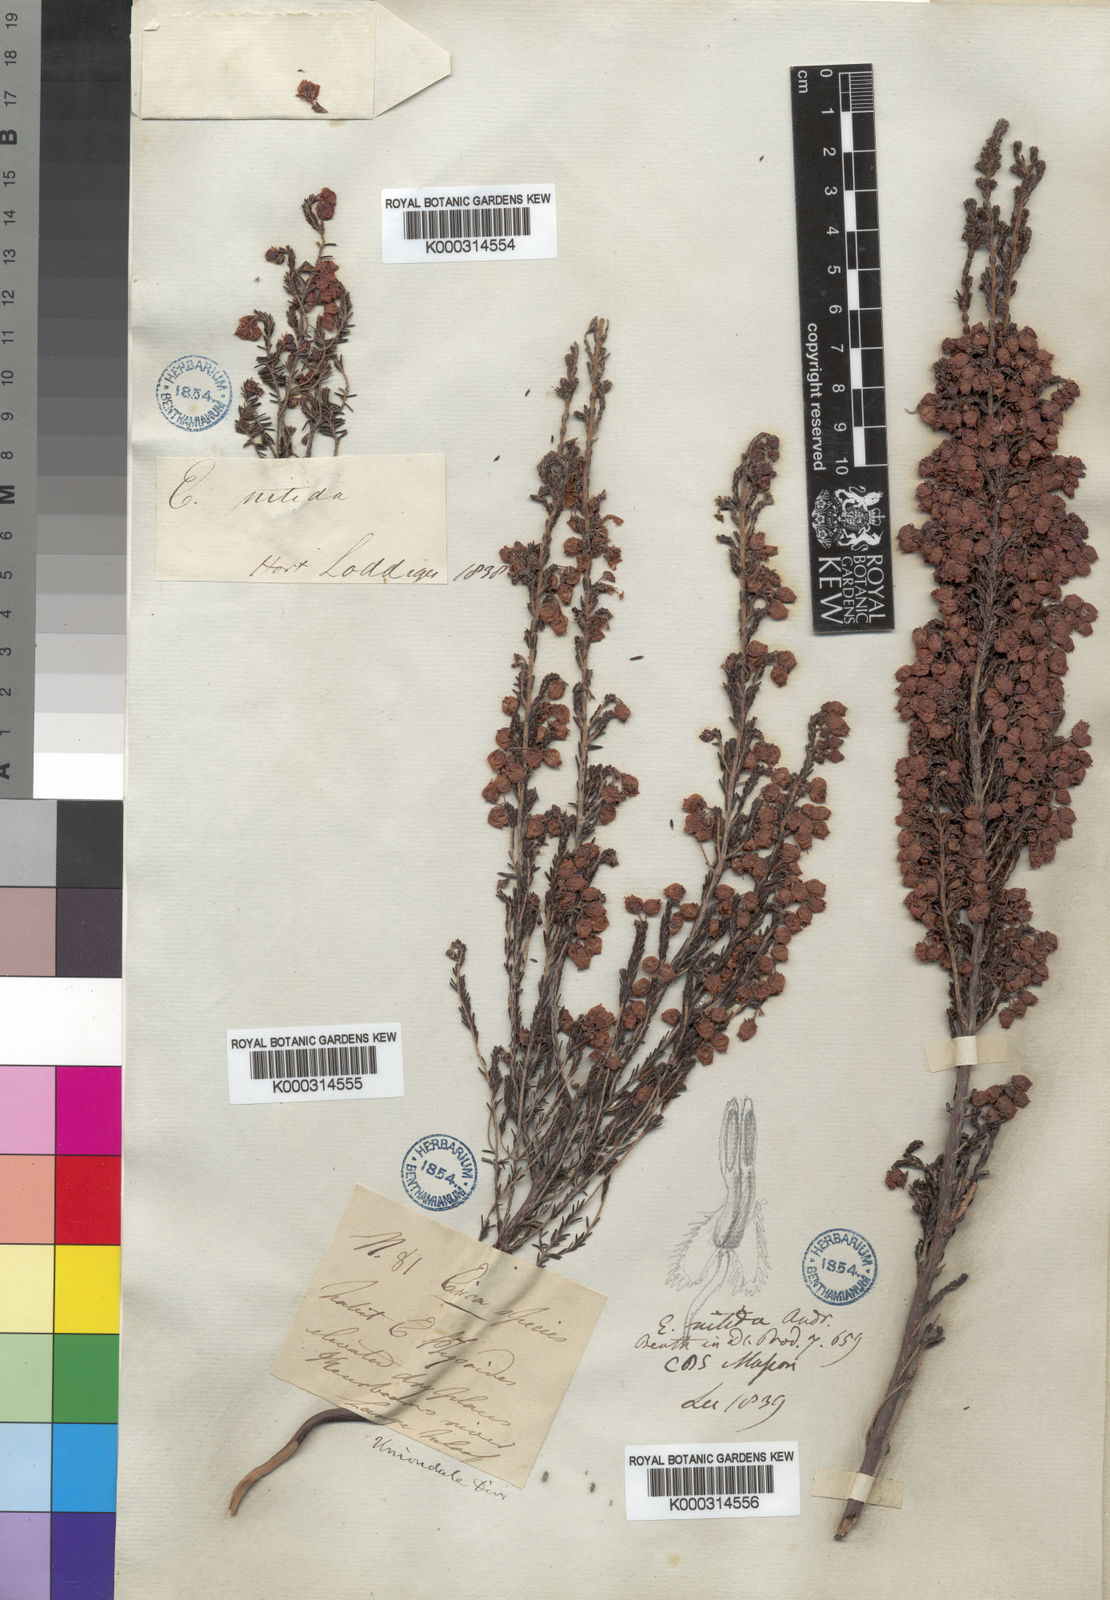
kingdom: Plantae
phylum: Tracheophyta
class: Magnoliopsida
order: Ericales
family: Ericaceae
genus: Erica
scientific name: Erica tragulifera
